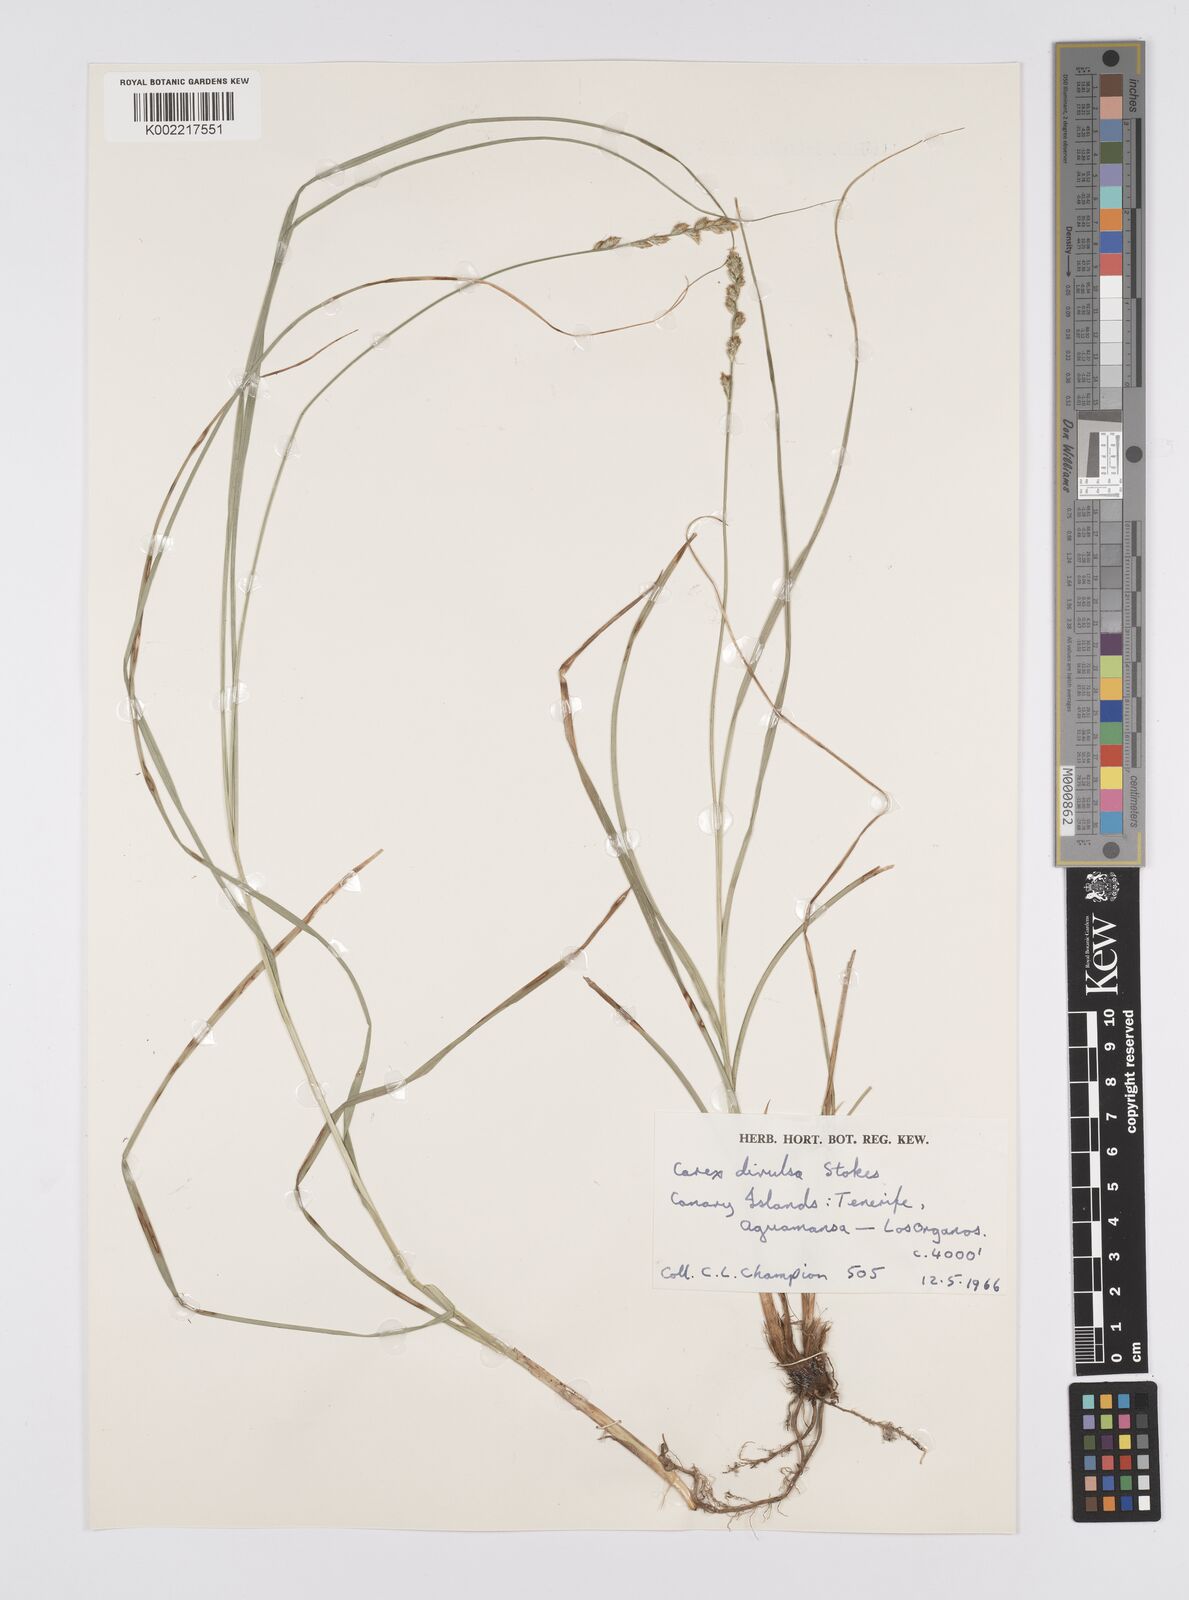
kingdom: Plantae
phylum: Tracheophyta
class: Liliopsida
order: Poales
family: Cyperaceae
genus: Carex
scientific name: Carex divulsa
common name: Grassland sedge
